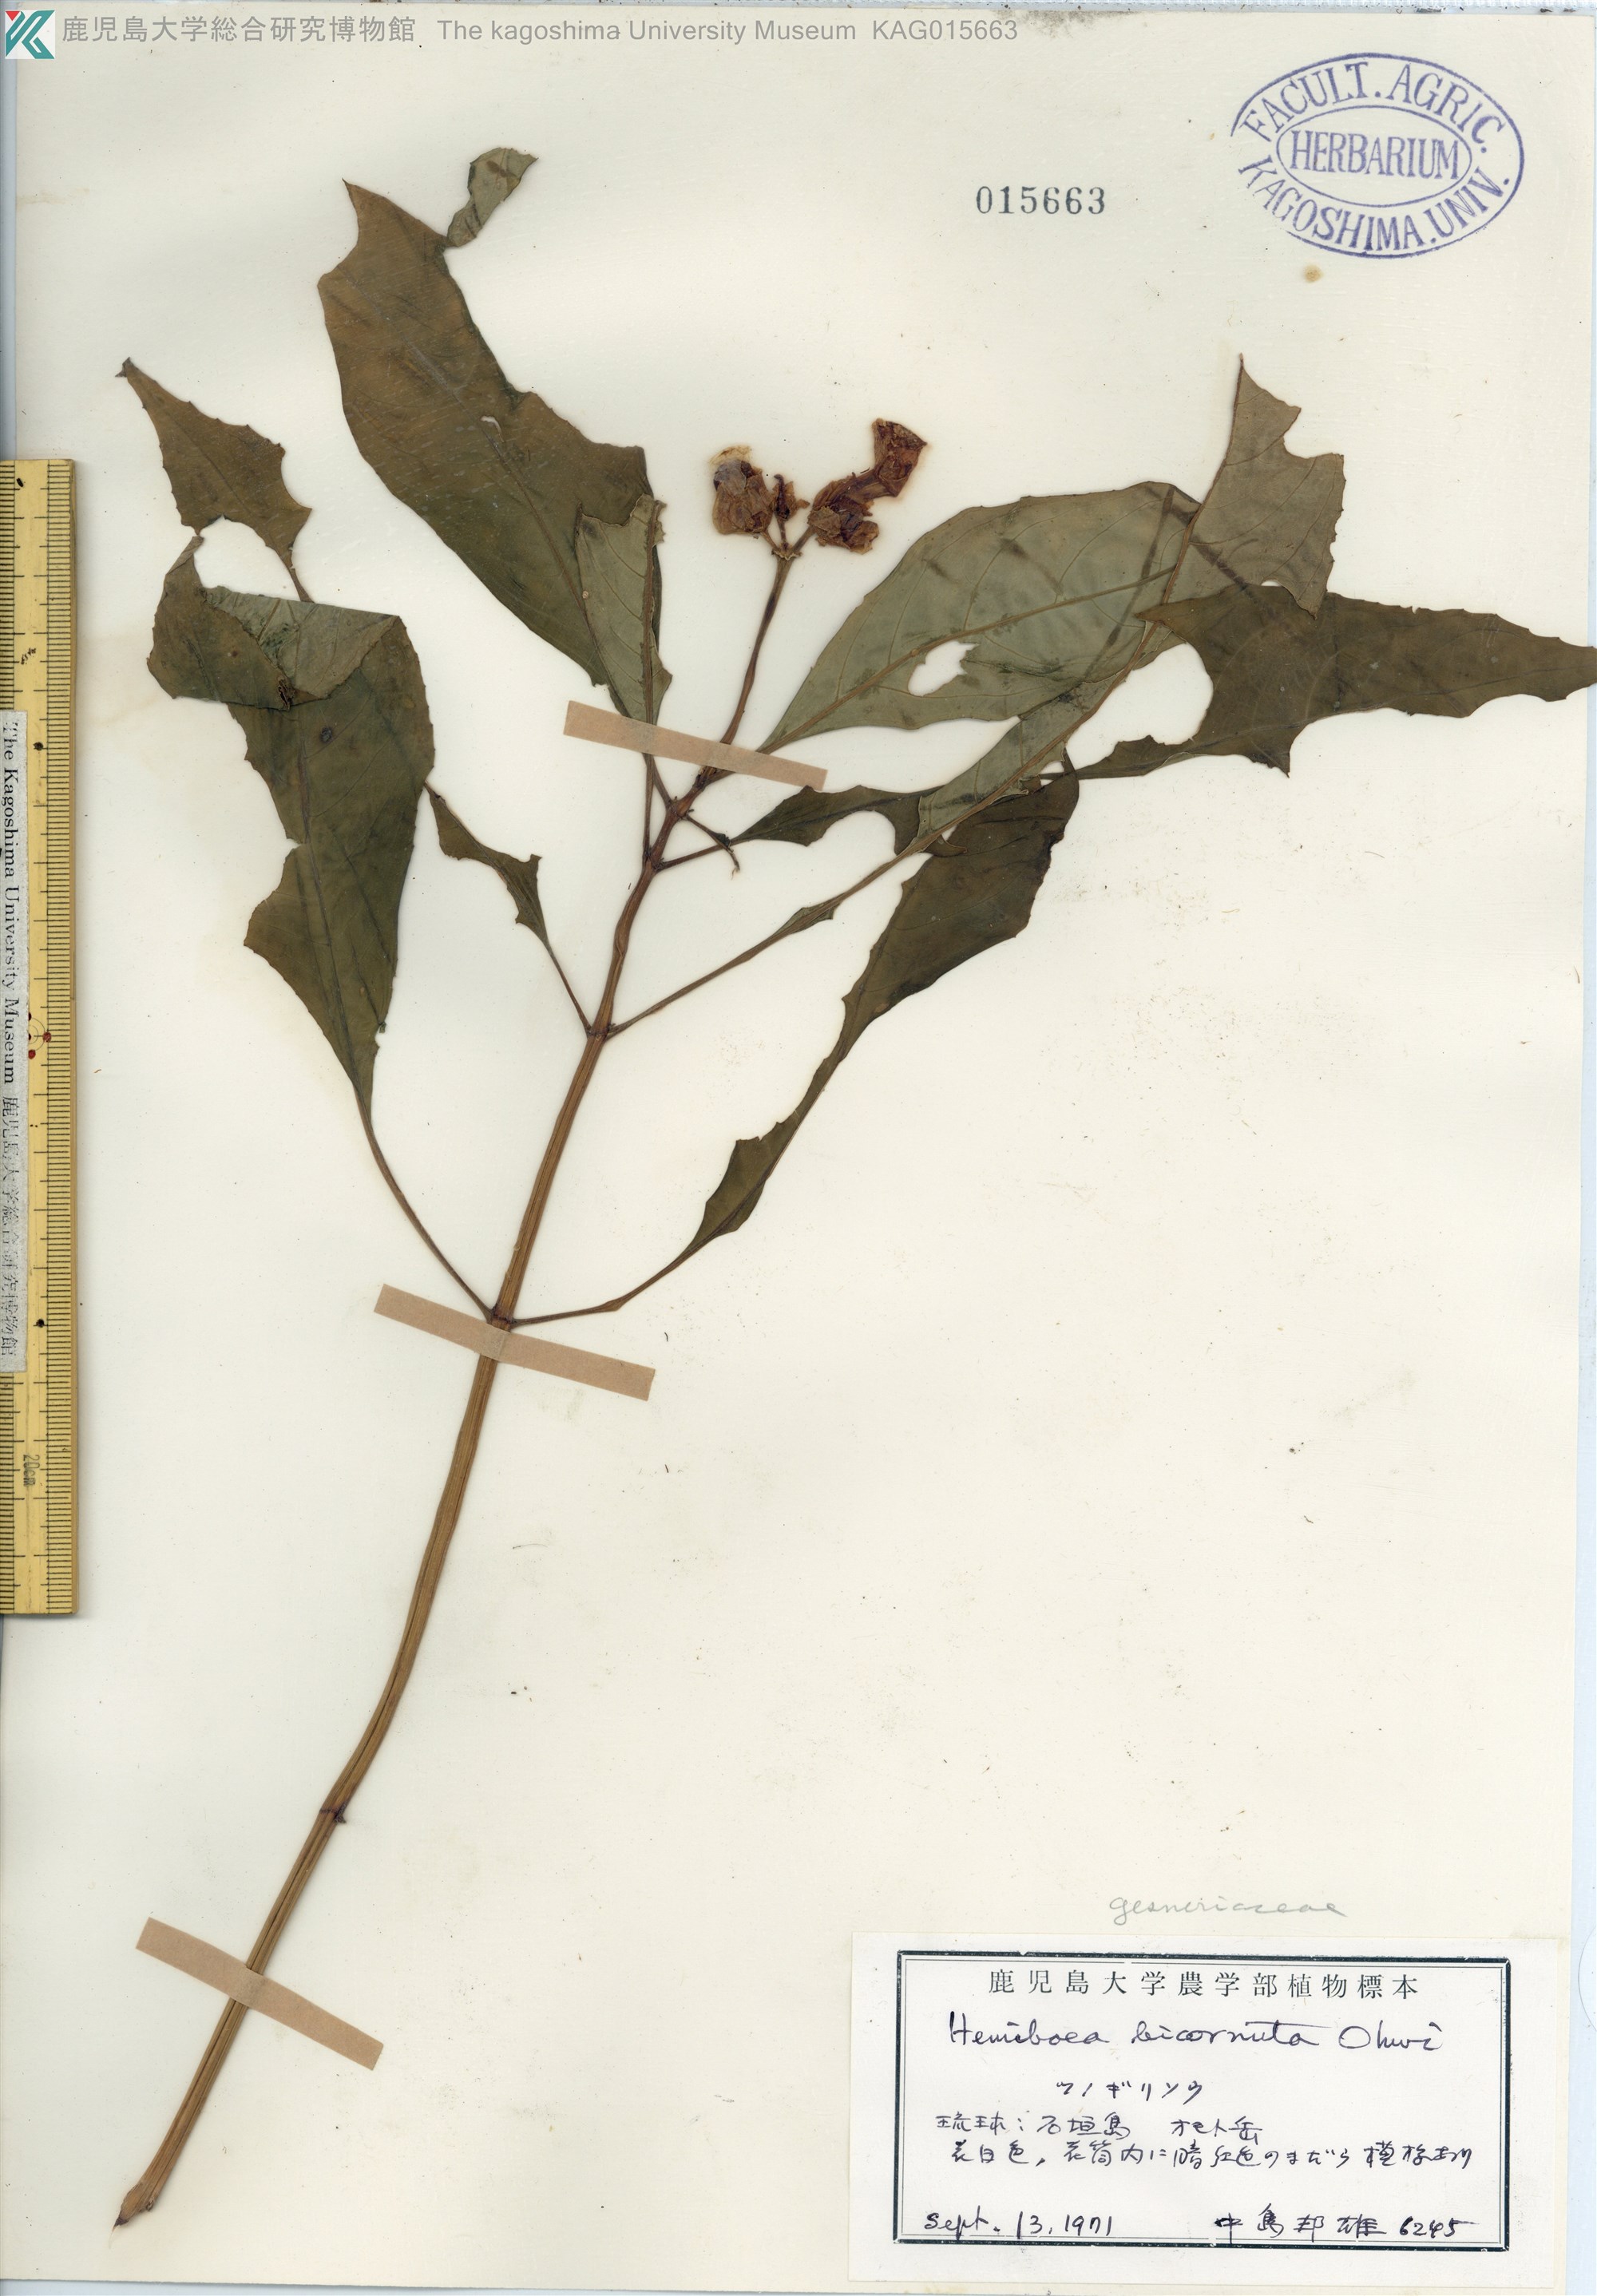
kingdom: Plantae
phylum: Tracheophyta
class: Magnoliopsida
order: Lamiales
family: Gesneriaceae
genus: Hemiboea
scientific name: Hemiboea bicornuta
